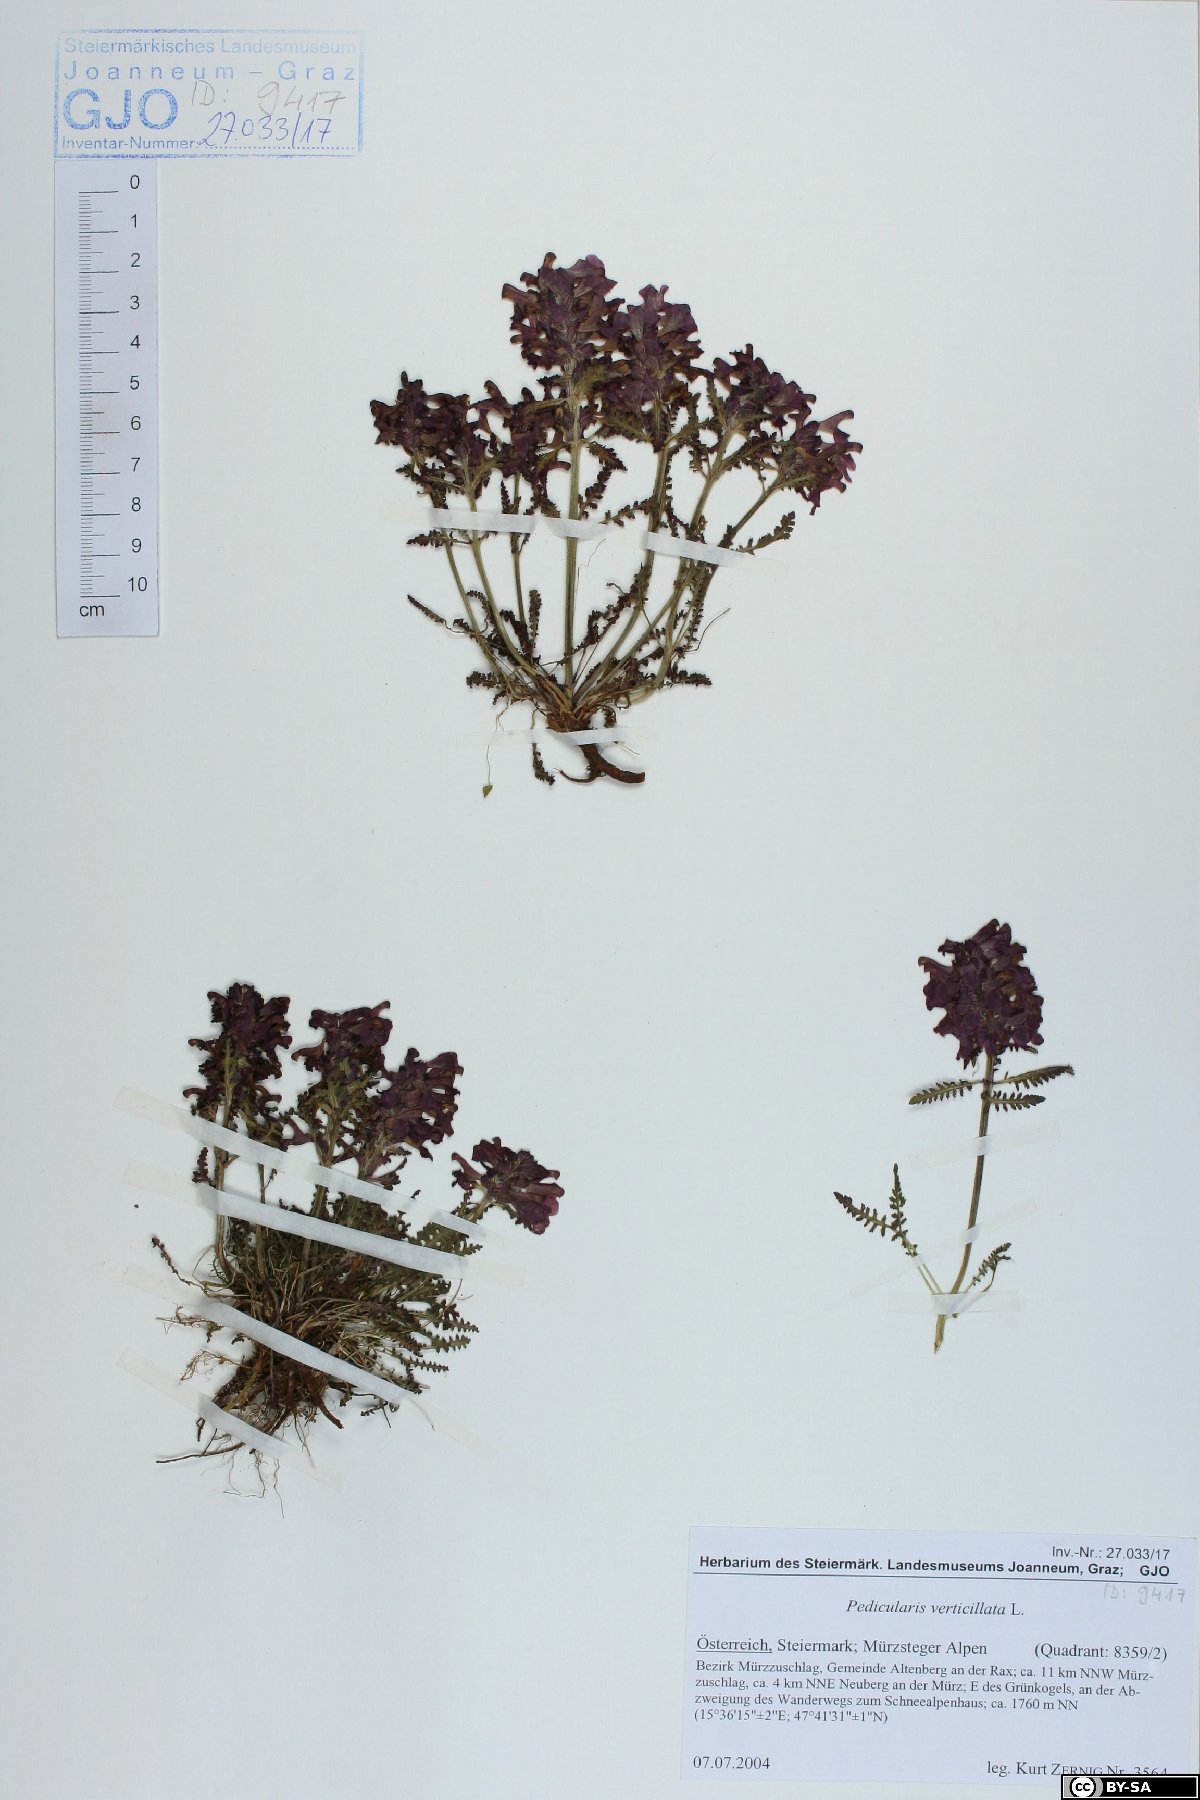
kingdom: Plantae
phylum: Tracheophyta
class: Magnoliopsida
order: Lamiales
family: Orobanchaceae
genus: Pedicularis
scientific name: Pedicularis verticillata
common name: Whorled lousewort
